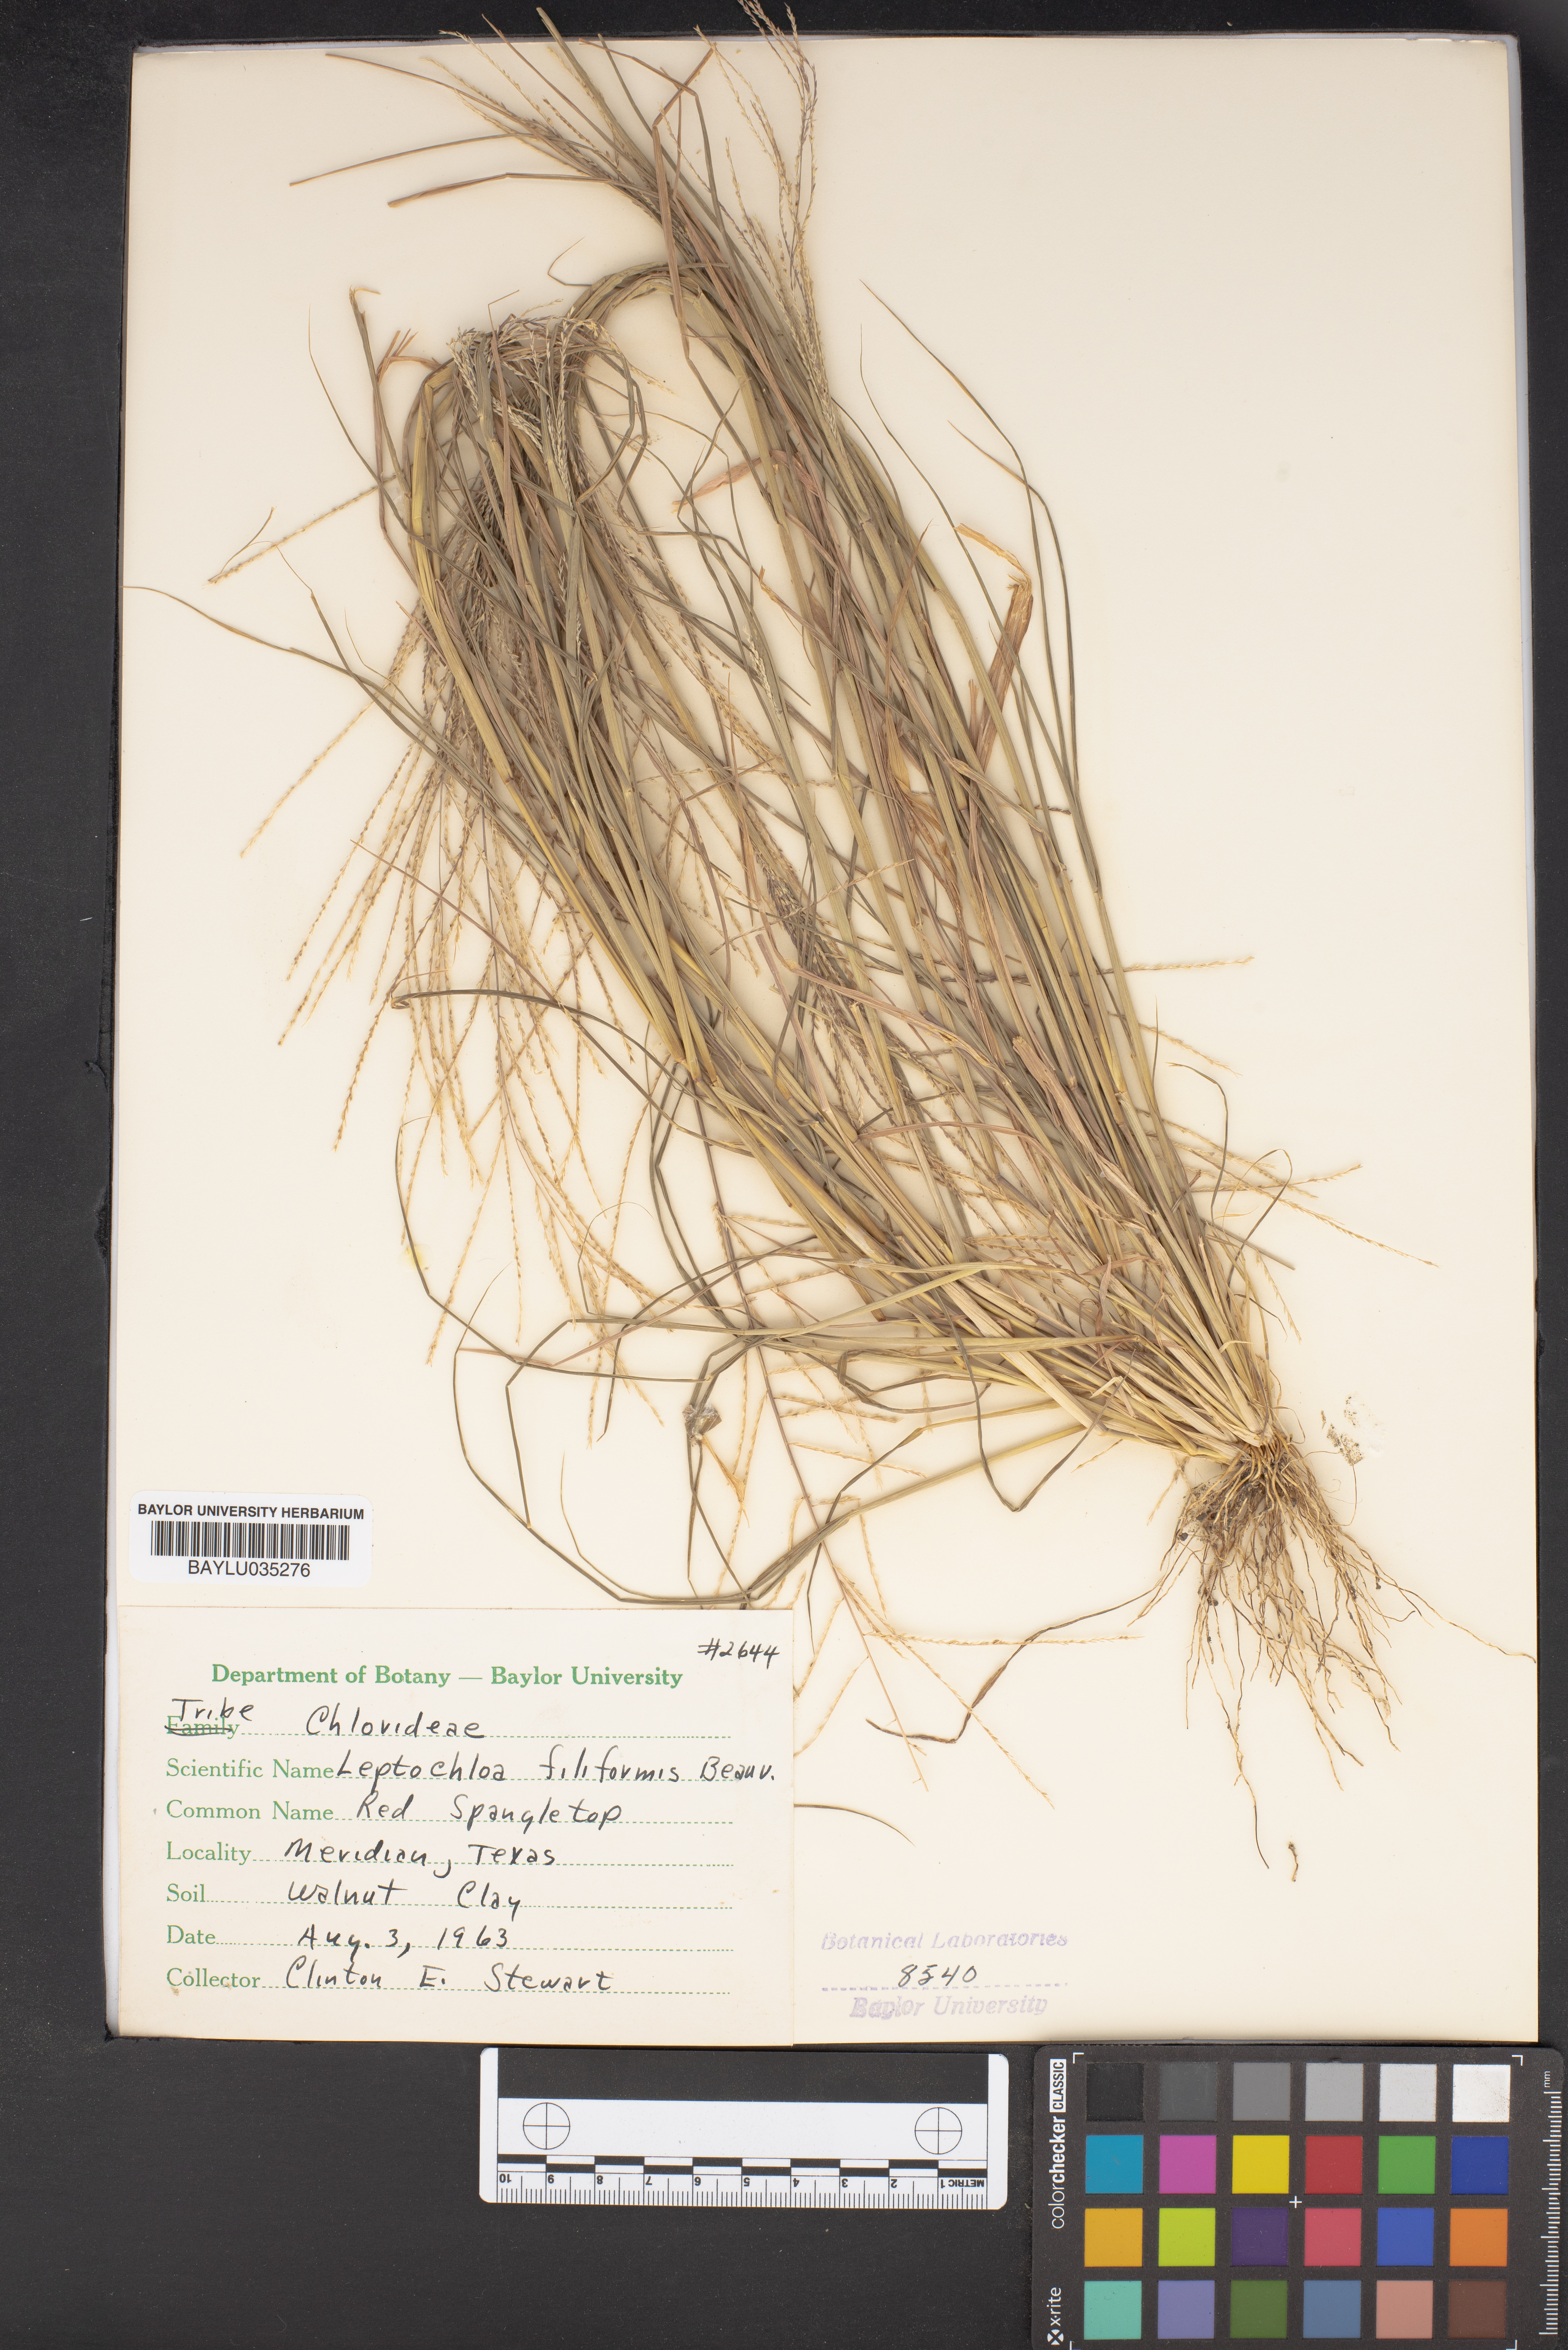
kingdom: Plantae
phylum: Tracheophyta
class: Liliopsida
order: Poales
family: Poaceae
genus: Leptochloa
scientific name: Leptochloa mucronata
